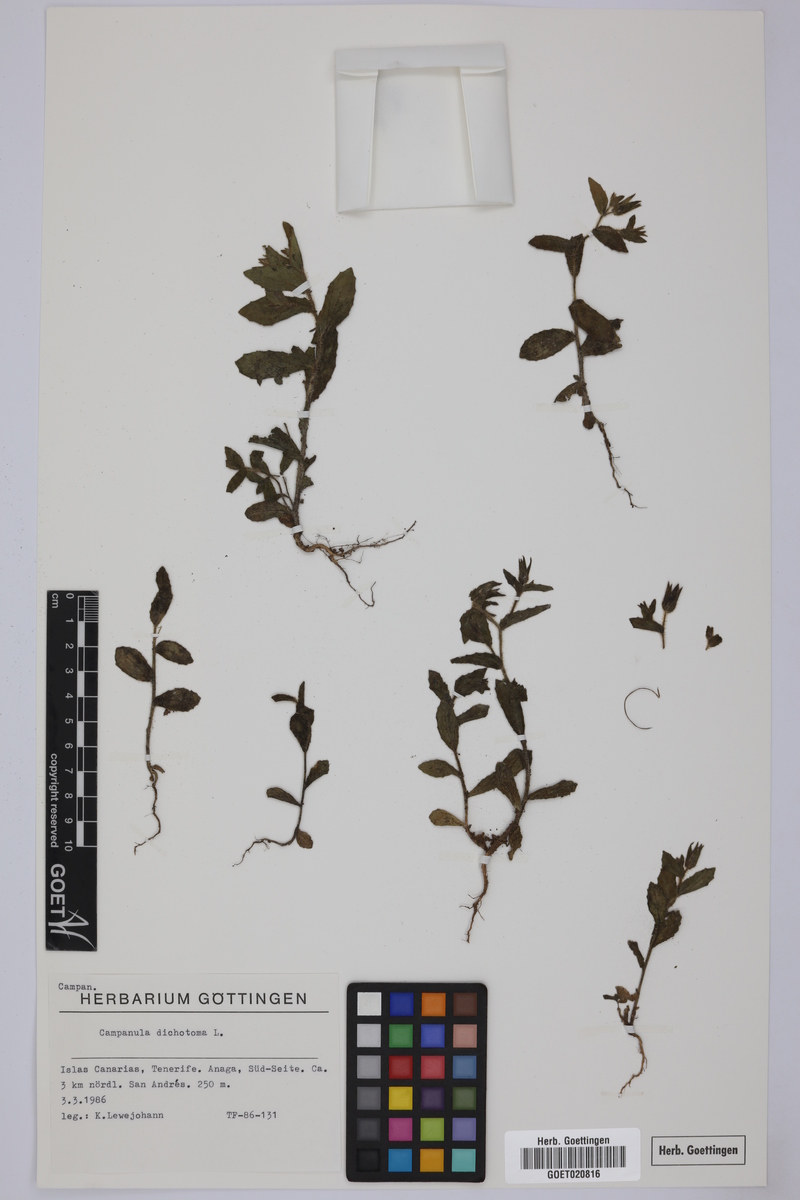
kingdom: Plantae
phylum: Tracheophyta
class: Magnoliopsida
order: Asterales
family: Campanulaceae
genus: Campanula
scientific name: Campanula dichotoma
